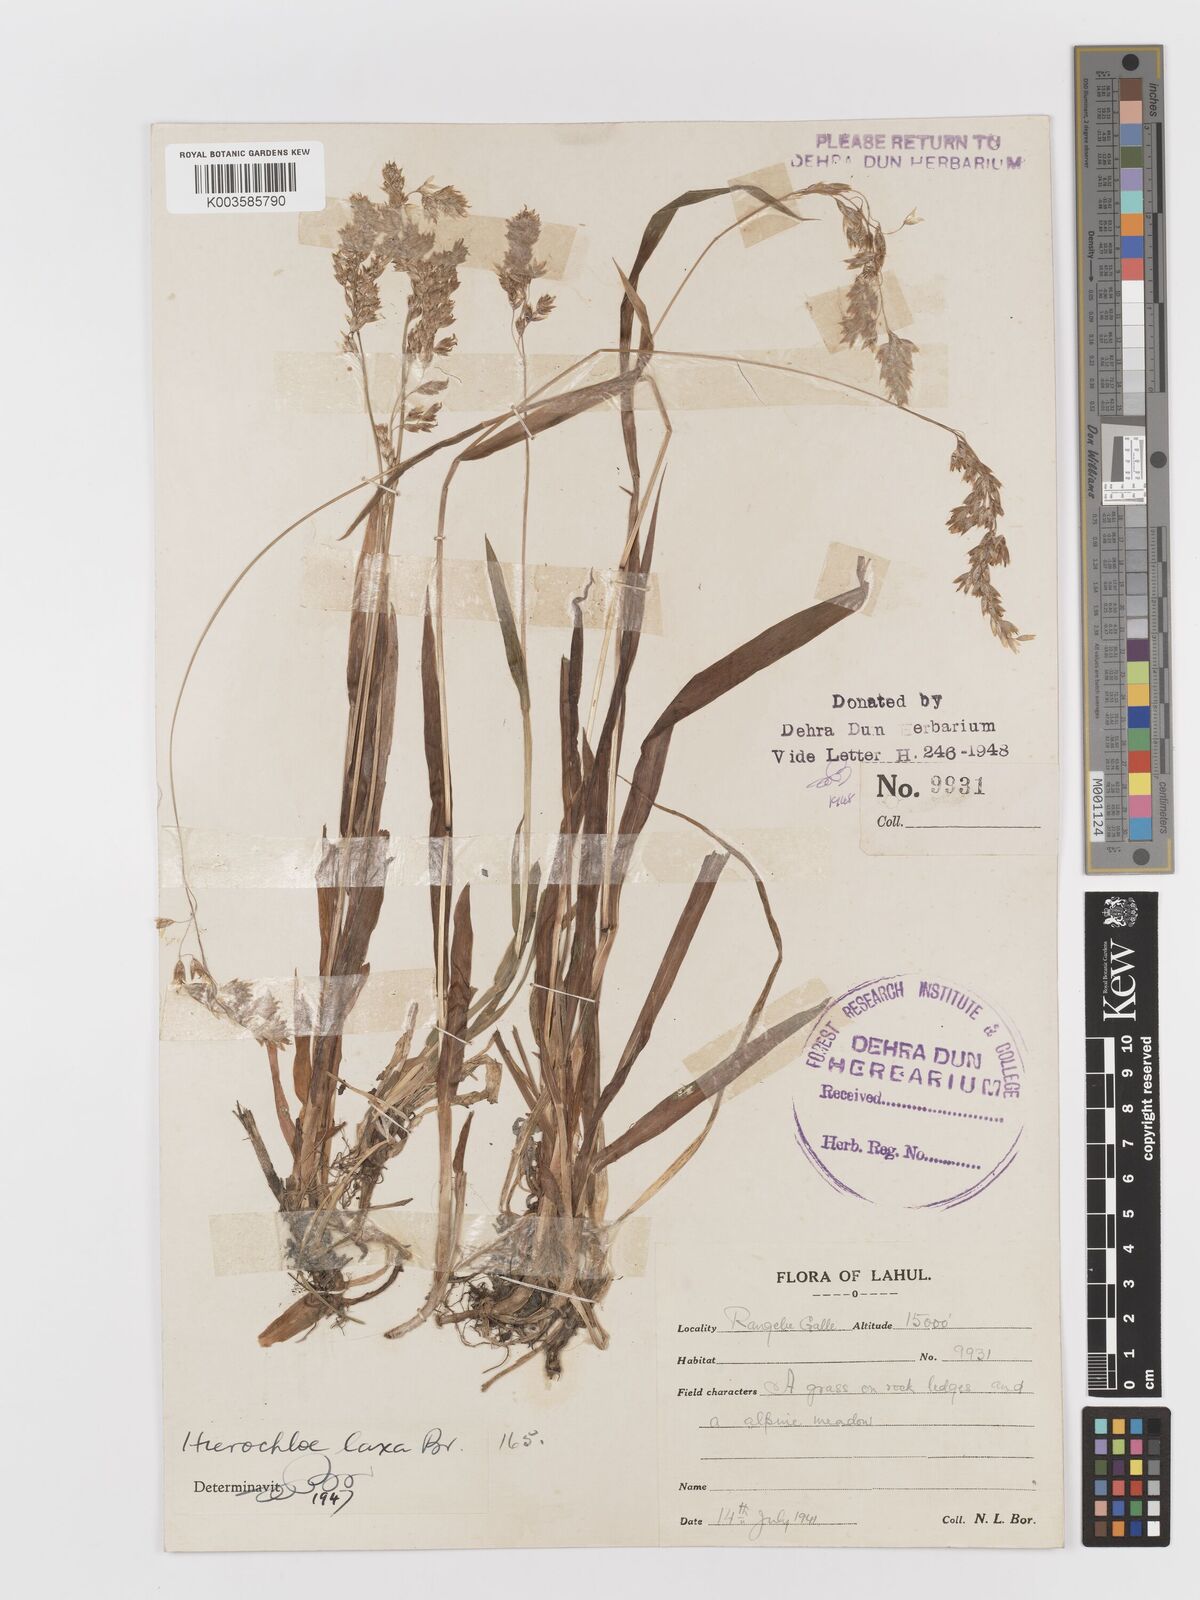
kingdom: Plantae
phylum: Tracheophyta
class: Liliopsida
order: Poales
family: Poaceae
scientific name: Poaceae
